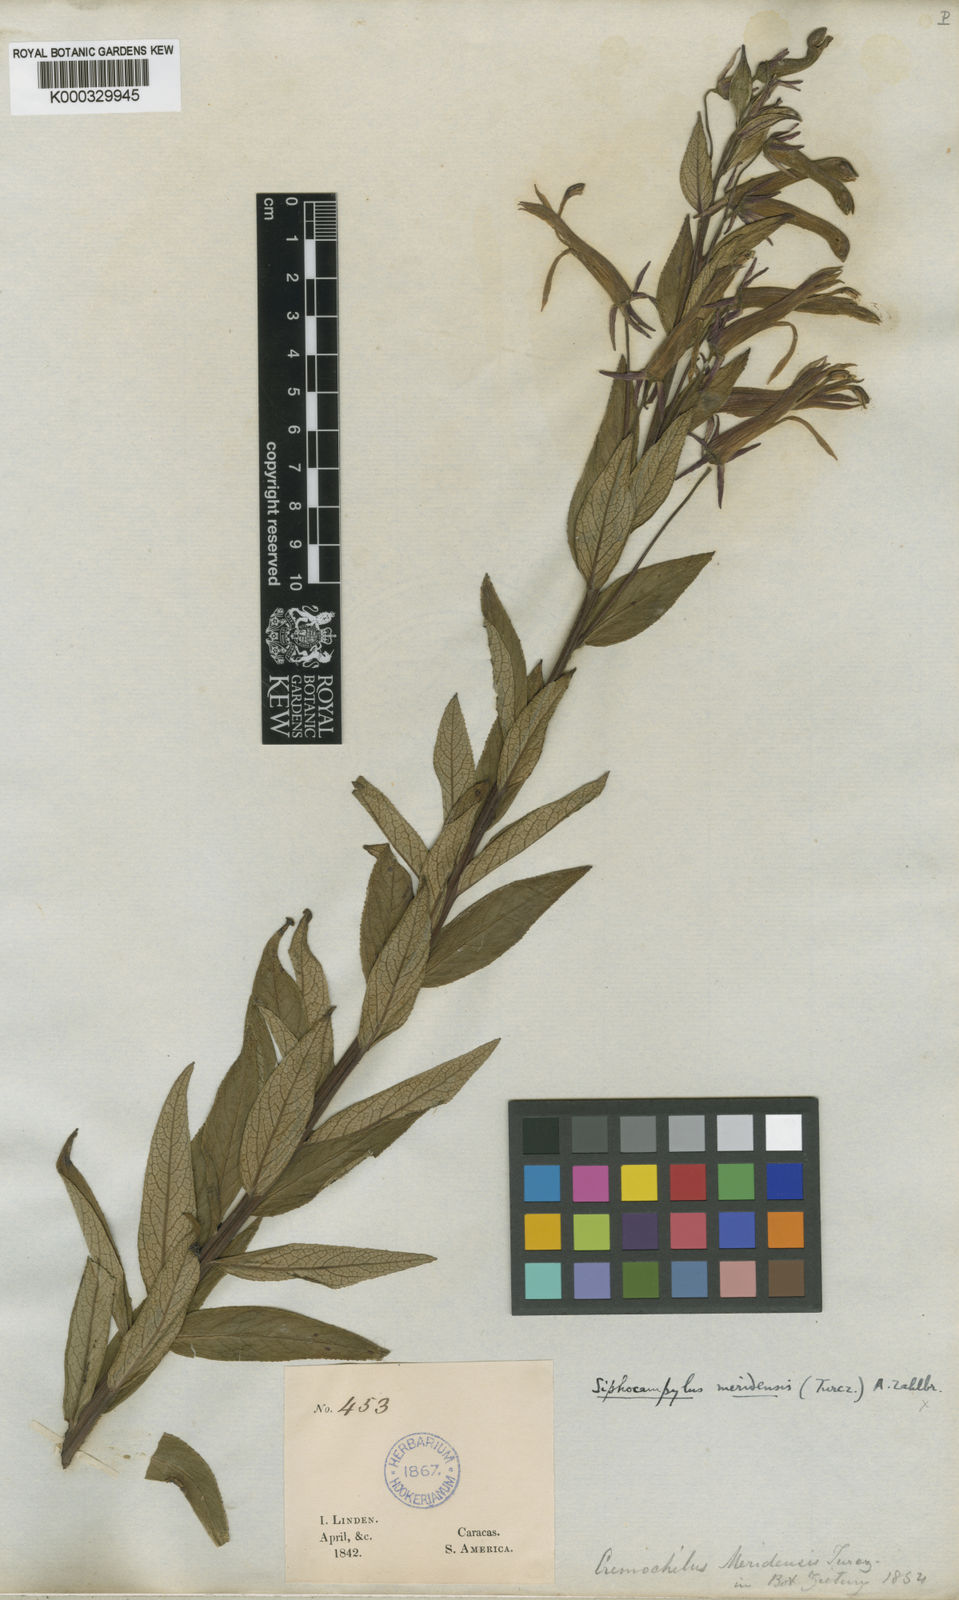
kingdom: Plantae
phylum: Tracheophyta
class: Magnoliopsida
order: Asterales
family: Campanulaceae
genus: Siphocampylus
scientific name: Siphocampylus sceptrum
